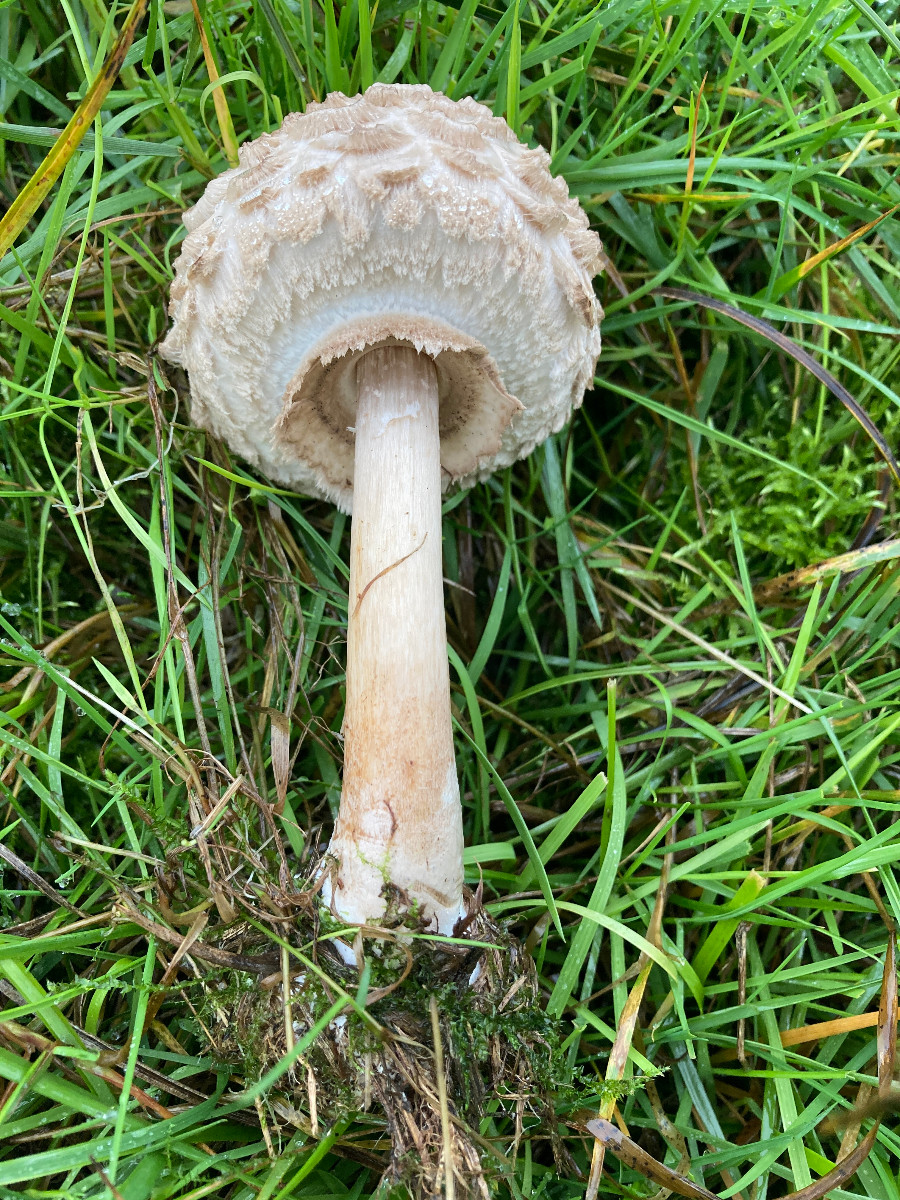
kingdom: Fungi
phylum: Basidiomycota
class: Agaricomycetes
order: Agaricales
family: Agaricaceae
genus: Chlorophyllum
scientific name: Chlorophyllum olivieri
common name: almindelig rabarberhat
